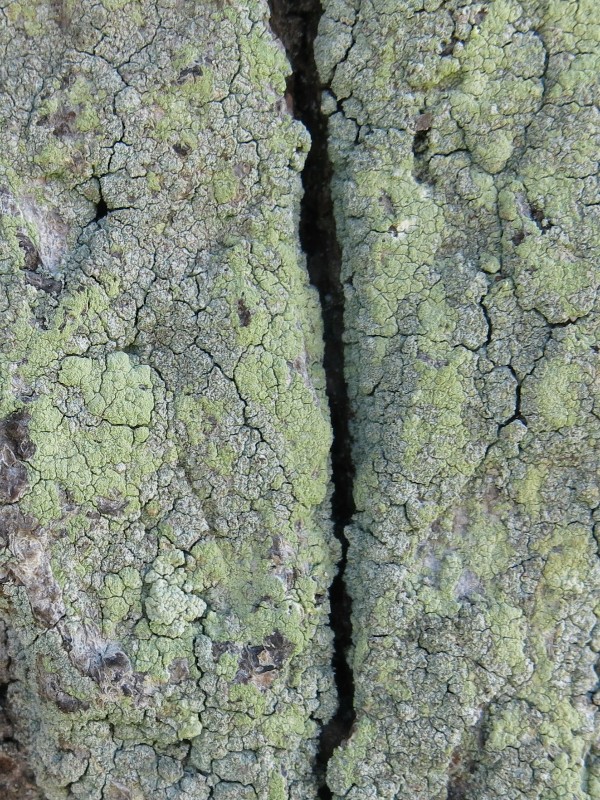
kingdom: Fungi
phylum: Ascomycota
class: Lecanoromycetes
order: Lecanorales
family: Stereocaulaceae
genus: Lepraria
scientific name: Lepraria incana
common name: almindelig støvlav
